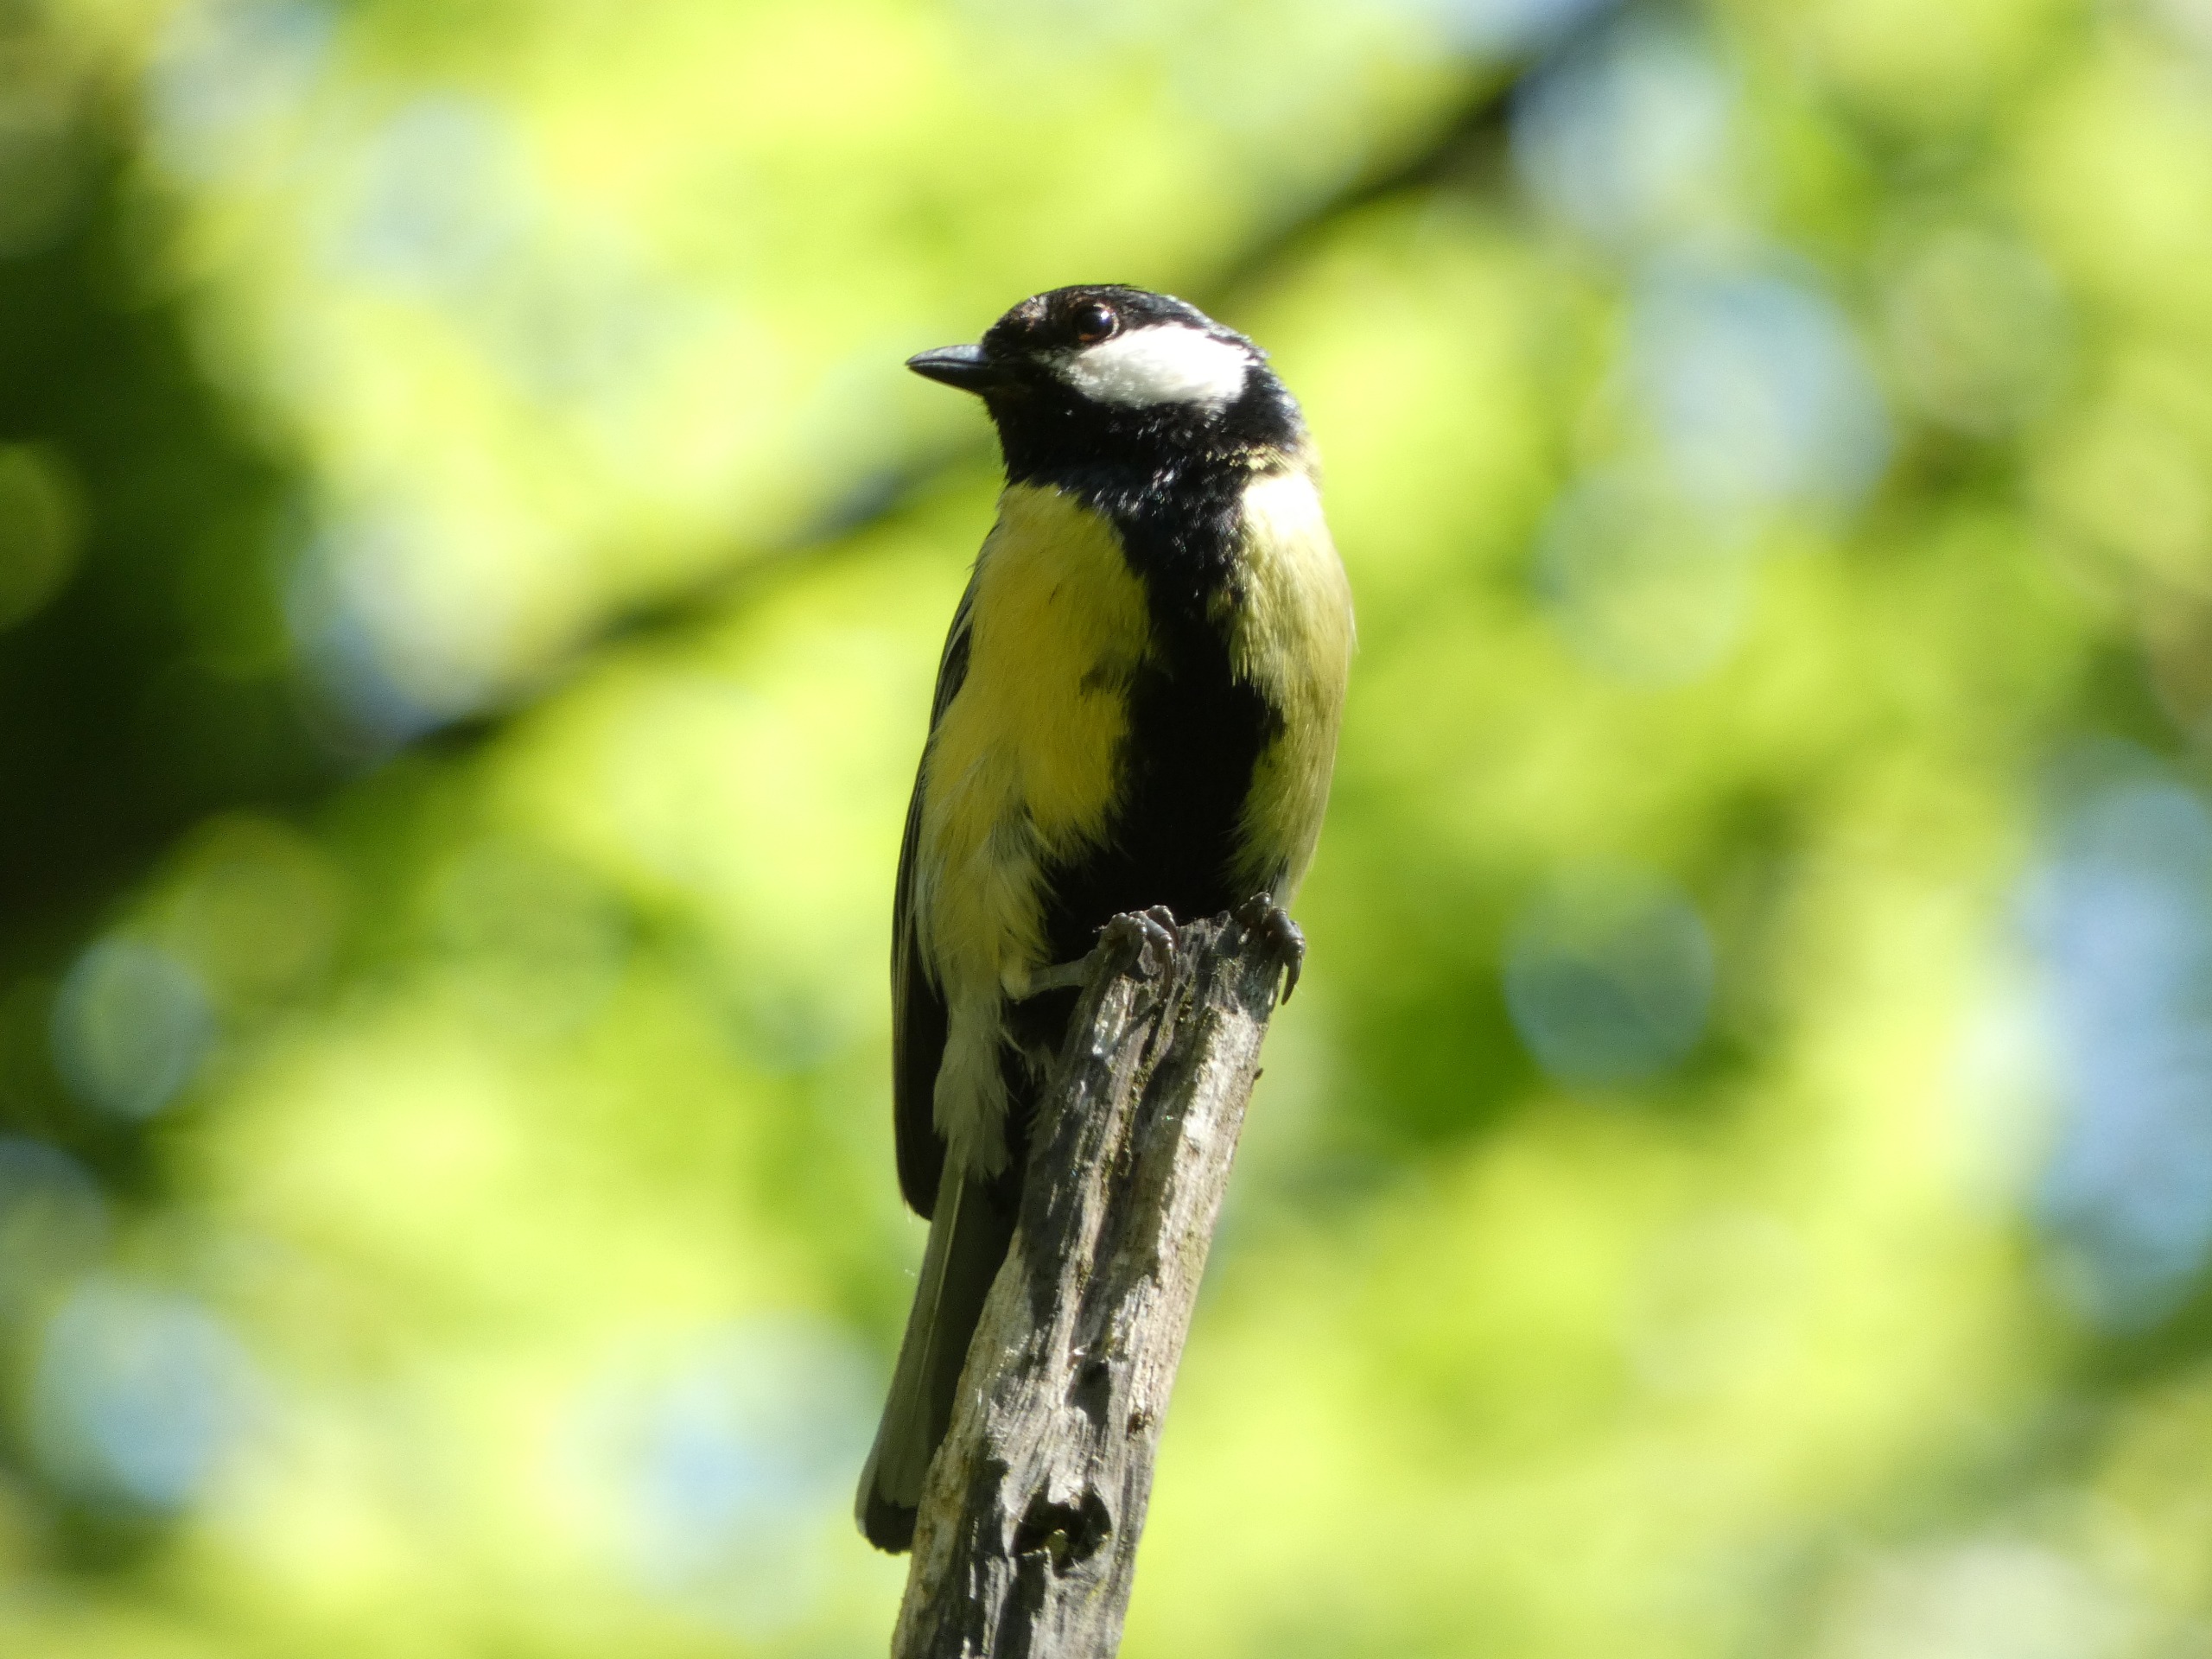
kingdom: Animalia
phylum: Chordata
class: Aves
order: Passeriformes
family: Paridae
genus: Parus
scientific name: Parus major
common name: Musvit
